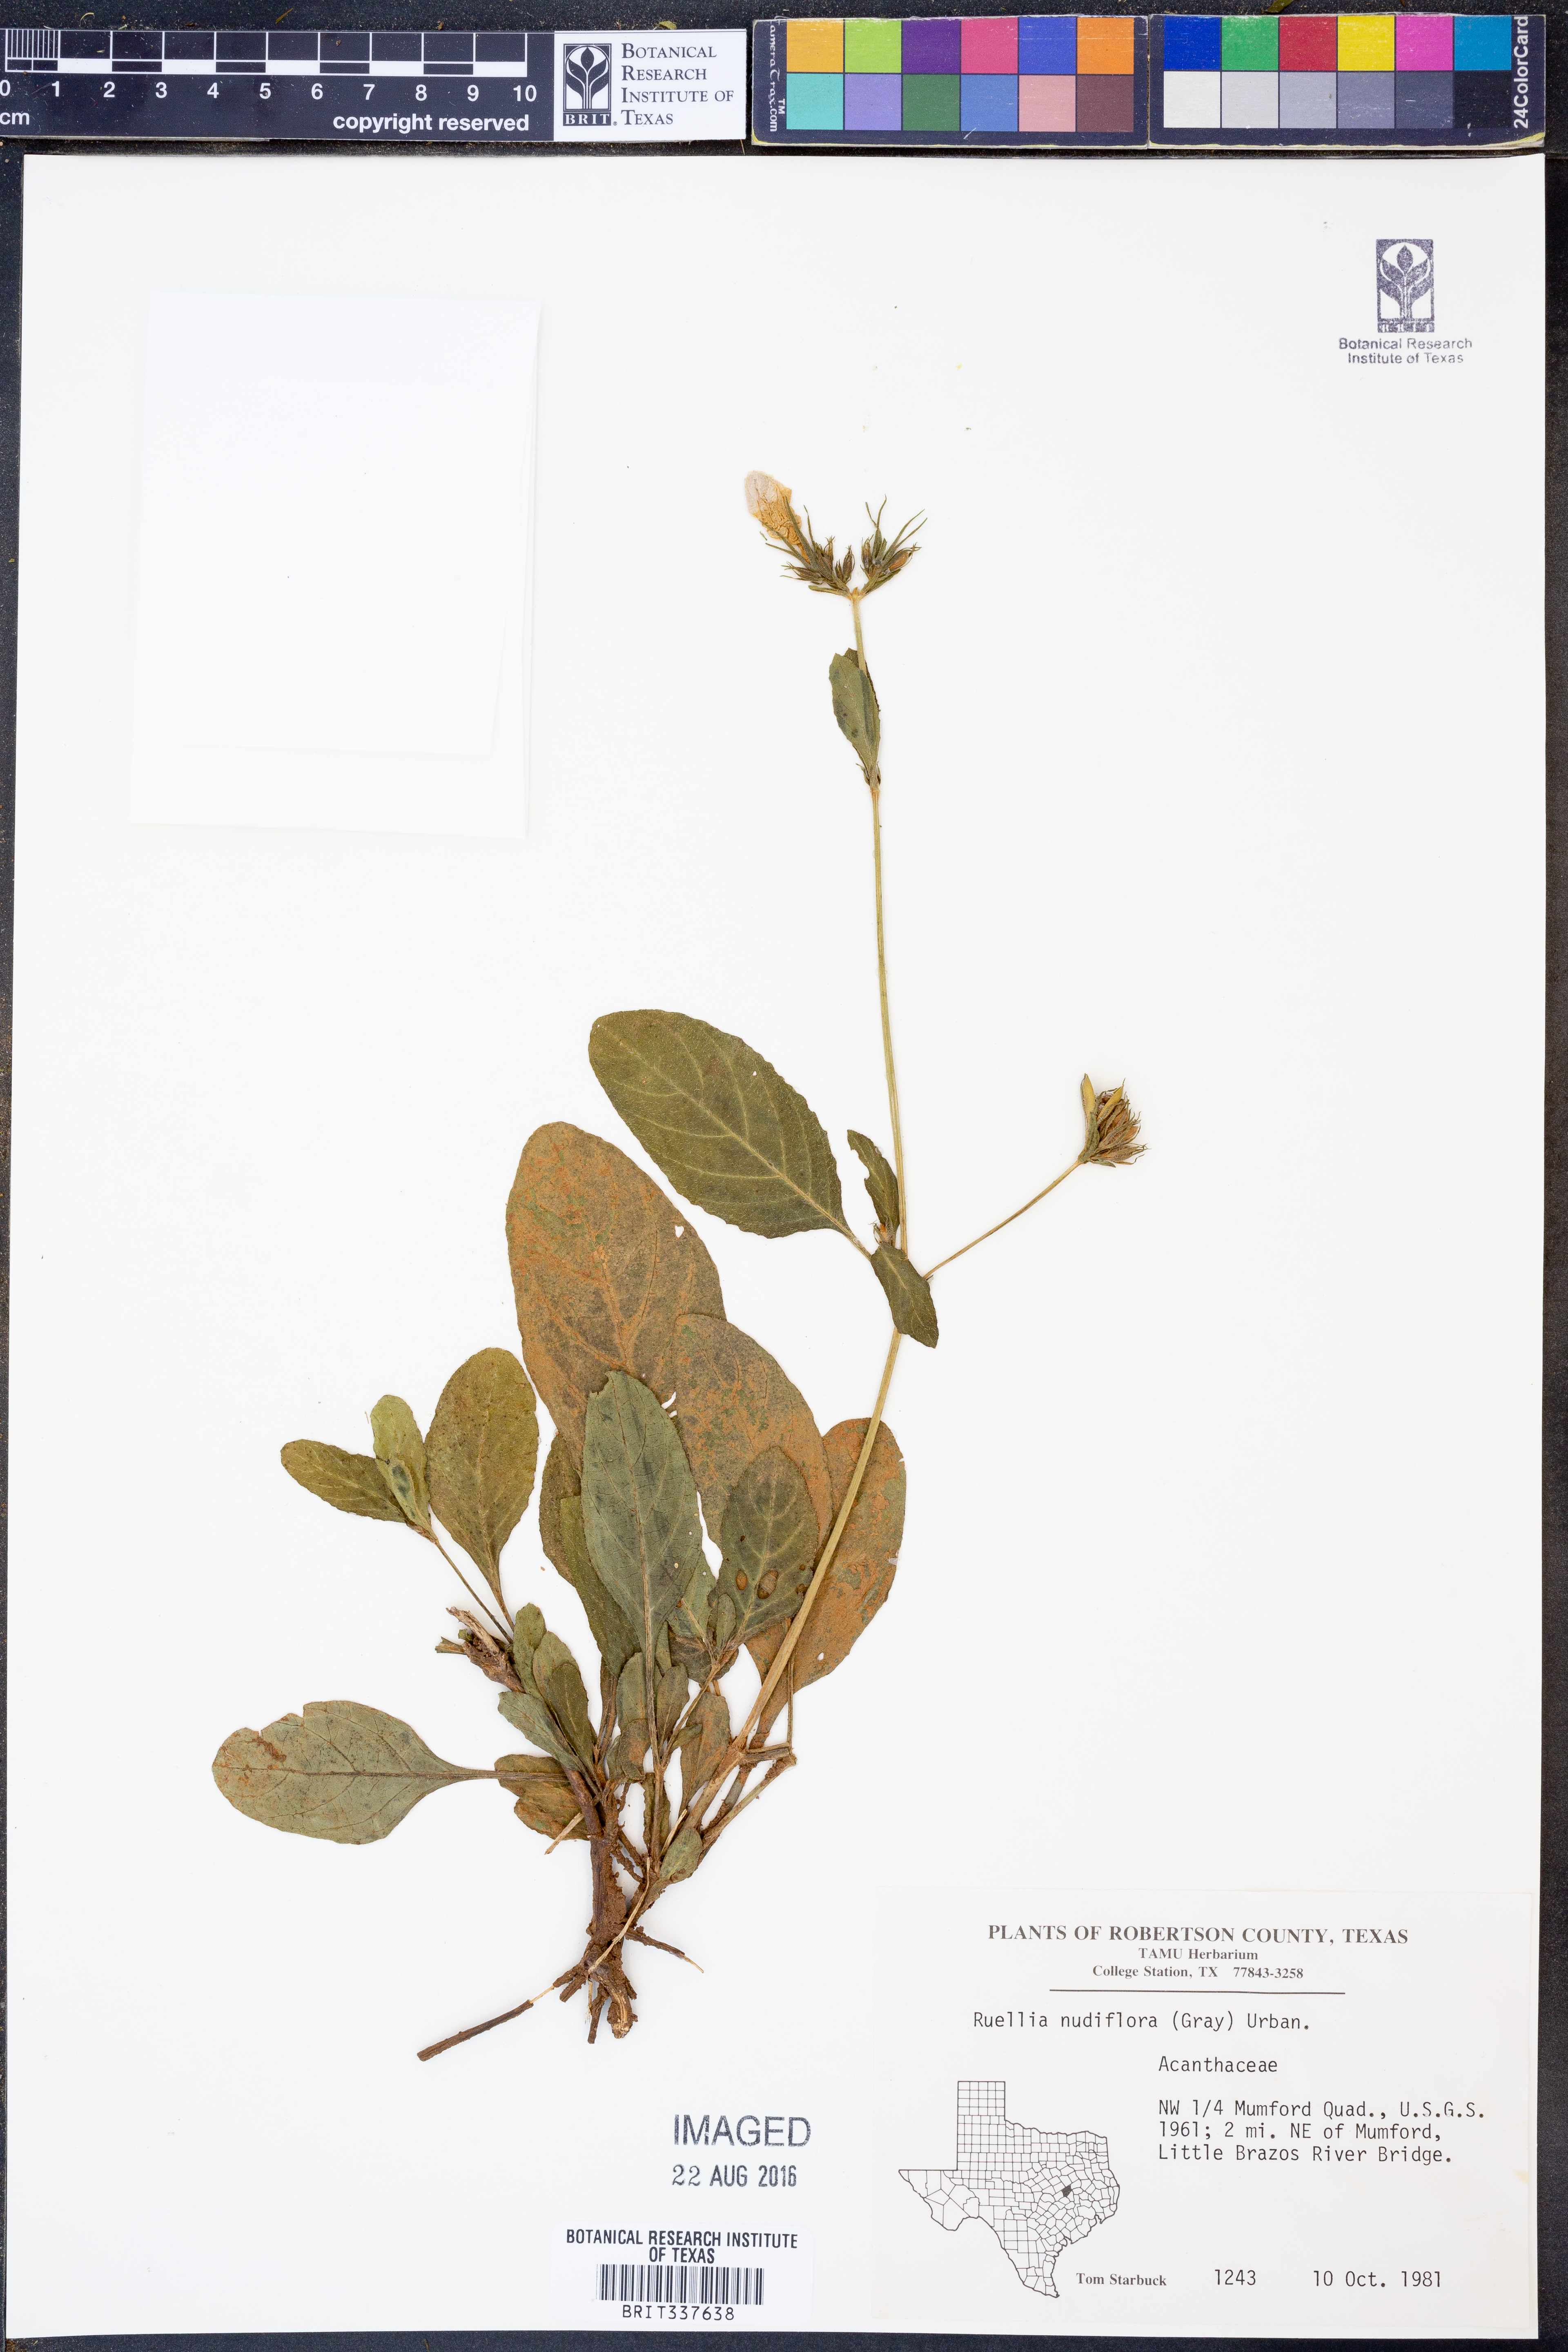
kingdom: Plantae
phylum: Tracheophyta
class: Magnoliopsida
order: Lamiales
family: Acanthaceae
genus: Ruellia
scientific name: Ruellia ciliatiflora
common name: Hairyflower wild petunia
